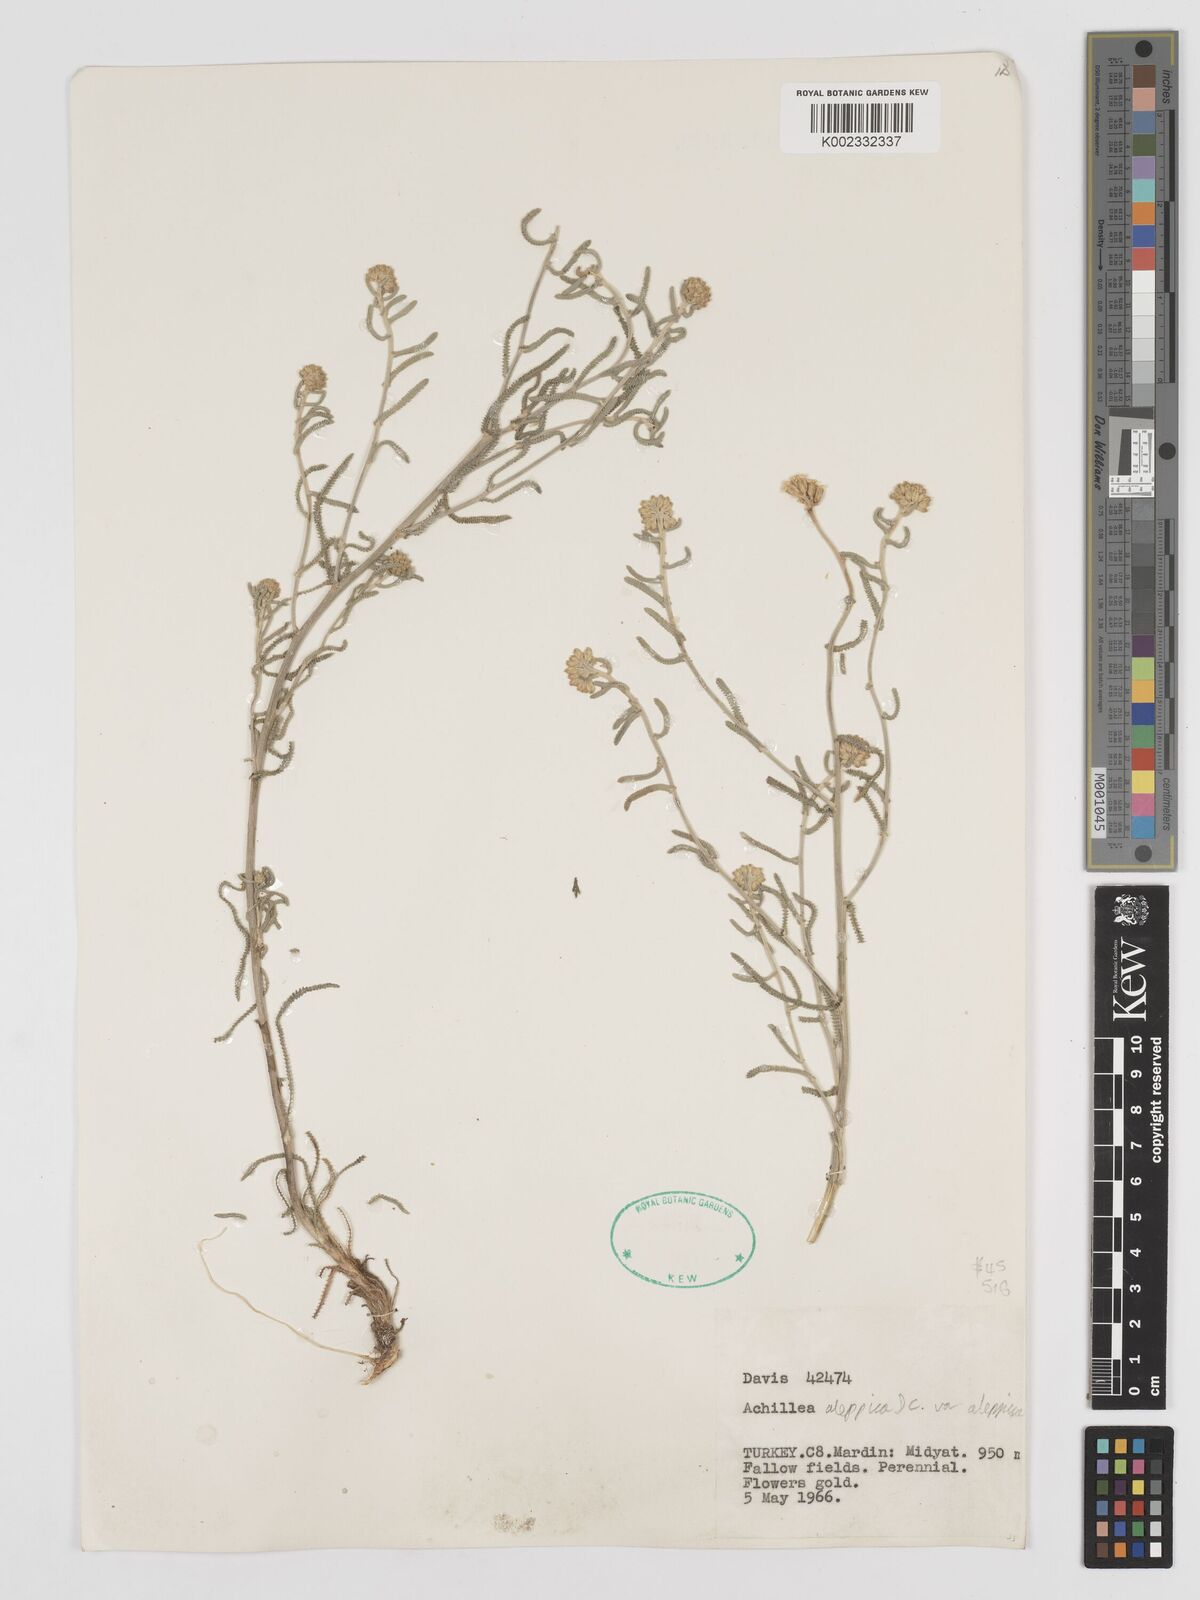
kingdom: Plantae
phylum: Tracheophyta
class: Magnoliopsida
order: Asterales
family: Asteraceae
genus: Achillea
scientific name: Achillea aleppica
